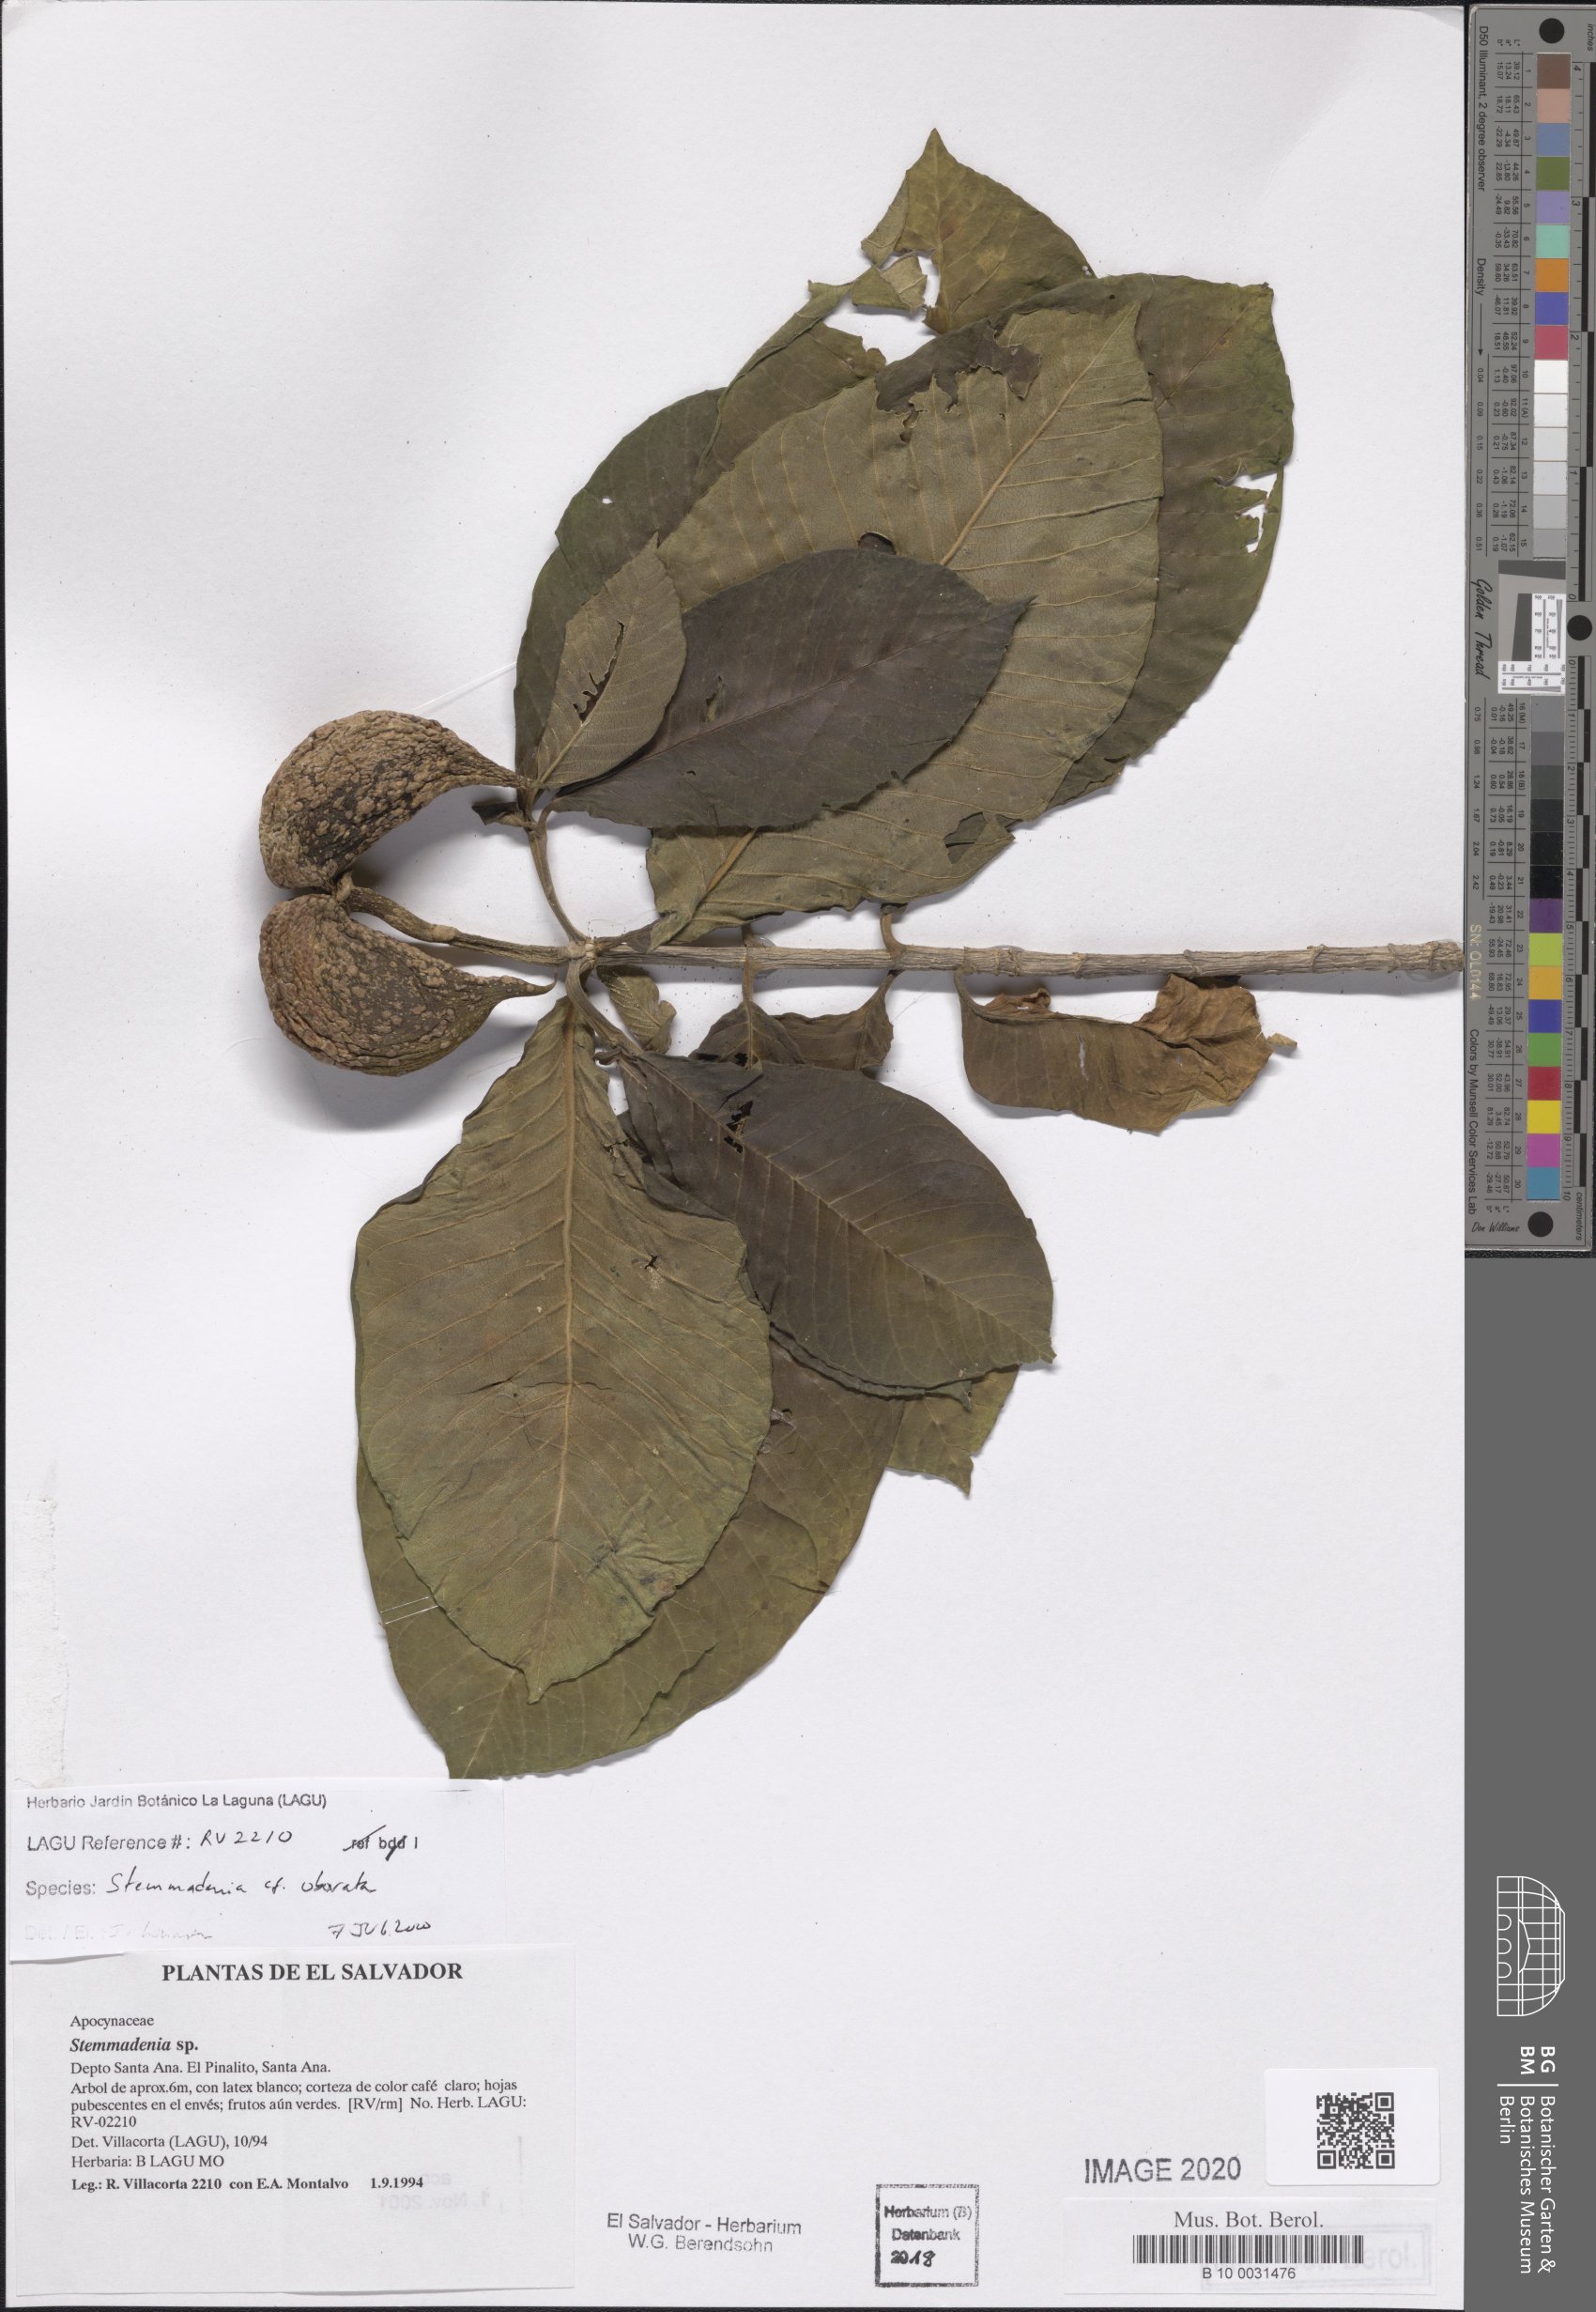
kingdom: Plantae
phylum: Tracheophyta
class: Magnoliopsida
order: Gentianales
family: Apocynaceae
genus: Tabernaemontana
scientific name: Tabernaemontana glabra
